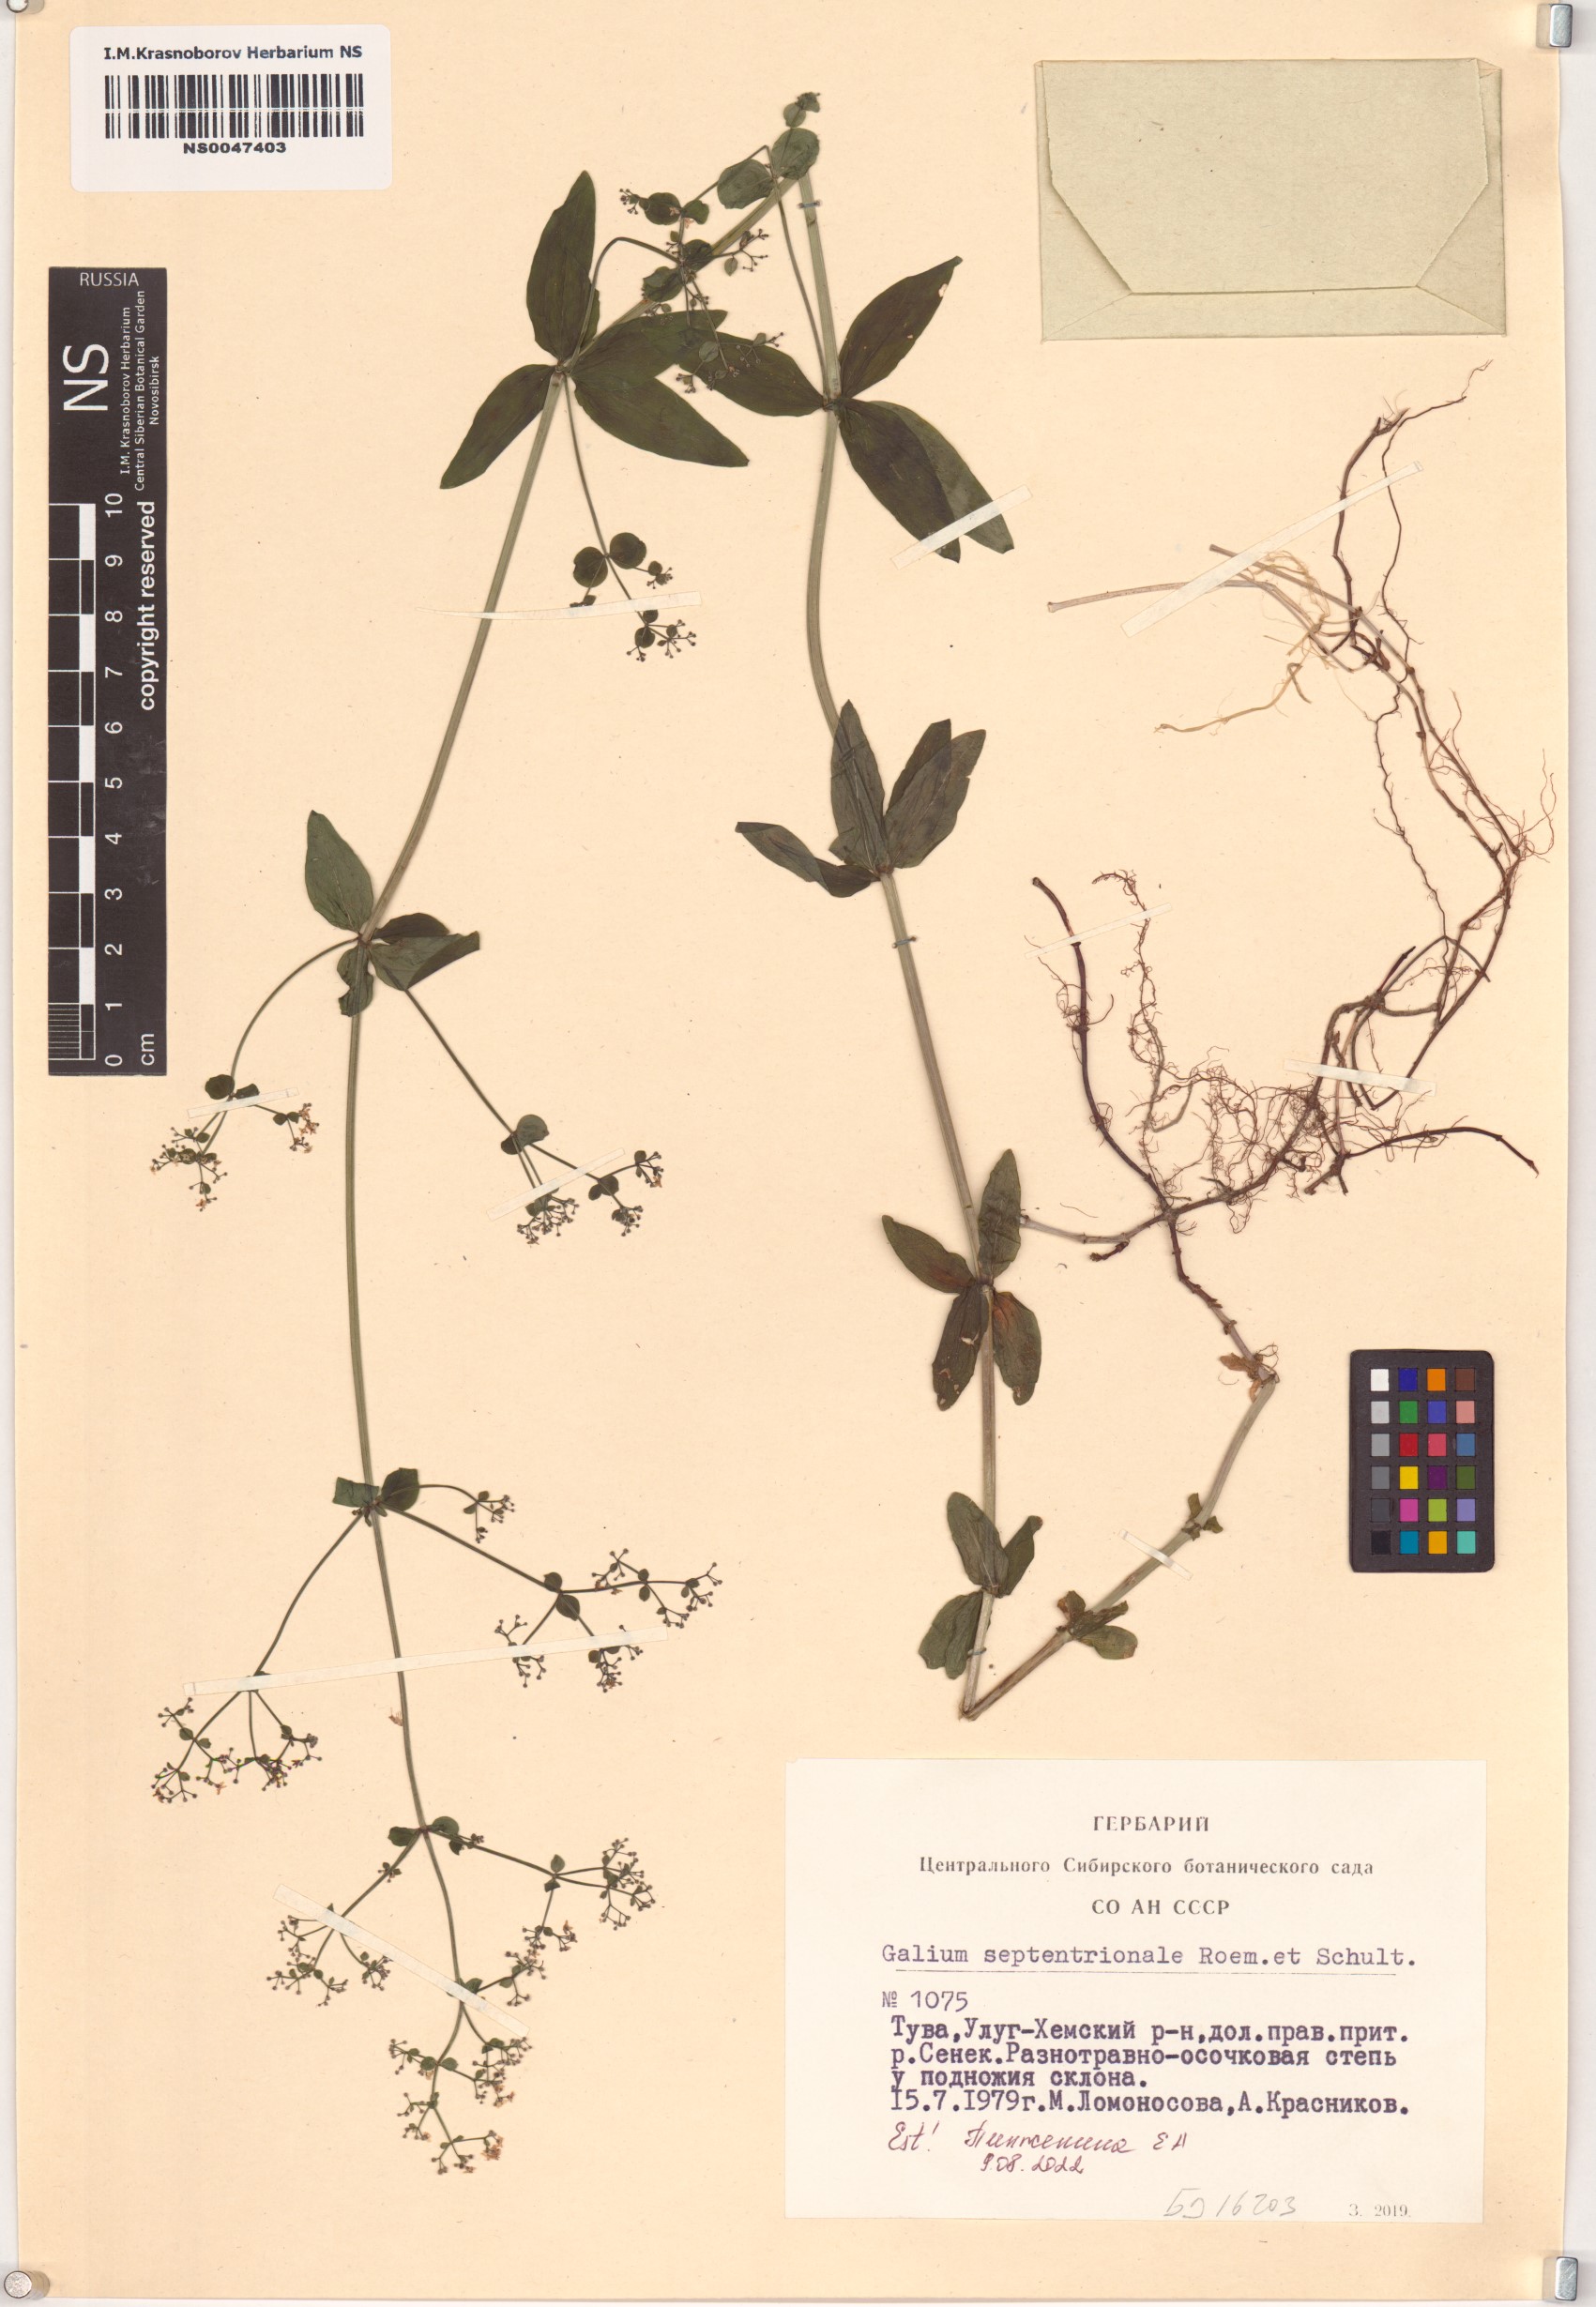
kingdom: Plantae
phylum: Tracheophyta
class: Magnoliopsida
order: Gentianales
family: Rubiaceae
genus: Galium
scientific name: Galium boreale
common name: Northern bedstraw
